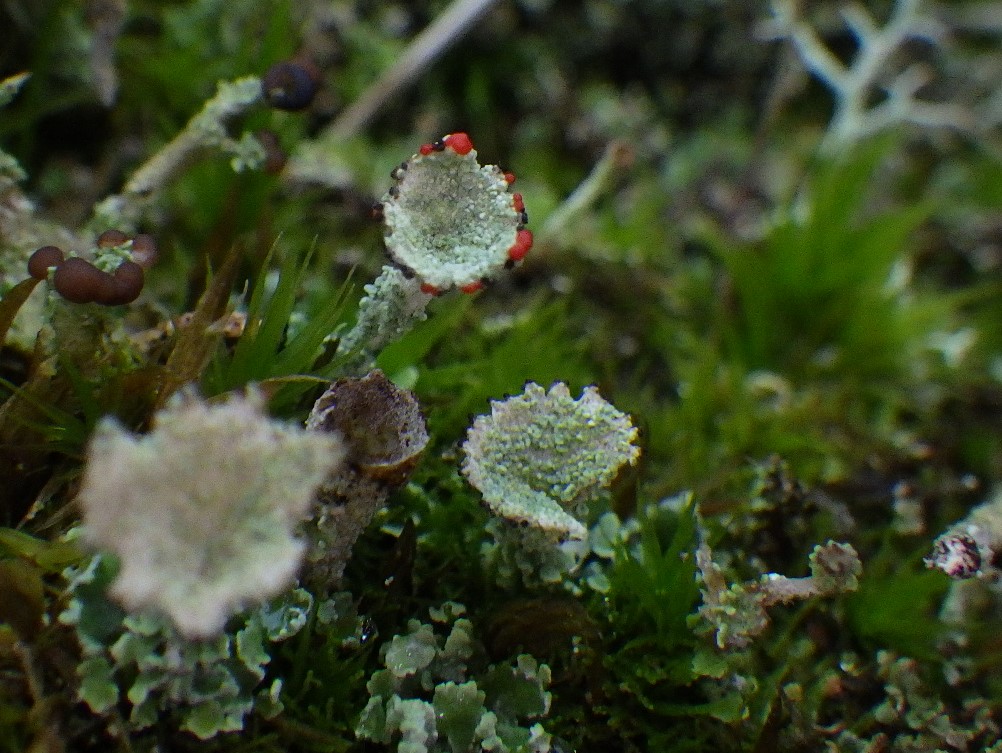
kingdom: Fungi
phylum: Ascomycota
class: Lecanoromycetes
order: Lecanorales
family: Cladoniaceae
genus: Cladonia
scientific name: Cladonia diversa
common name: rød bægerlav
